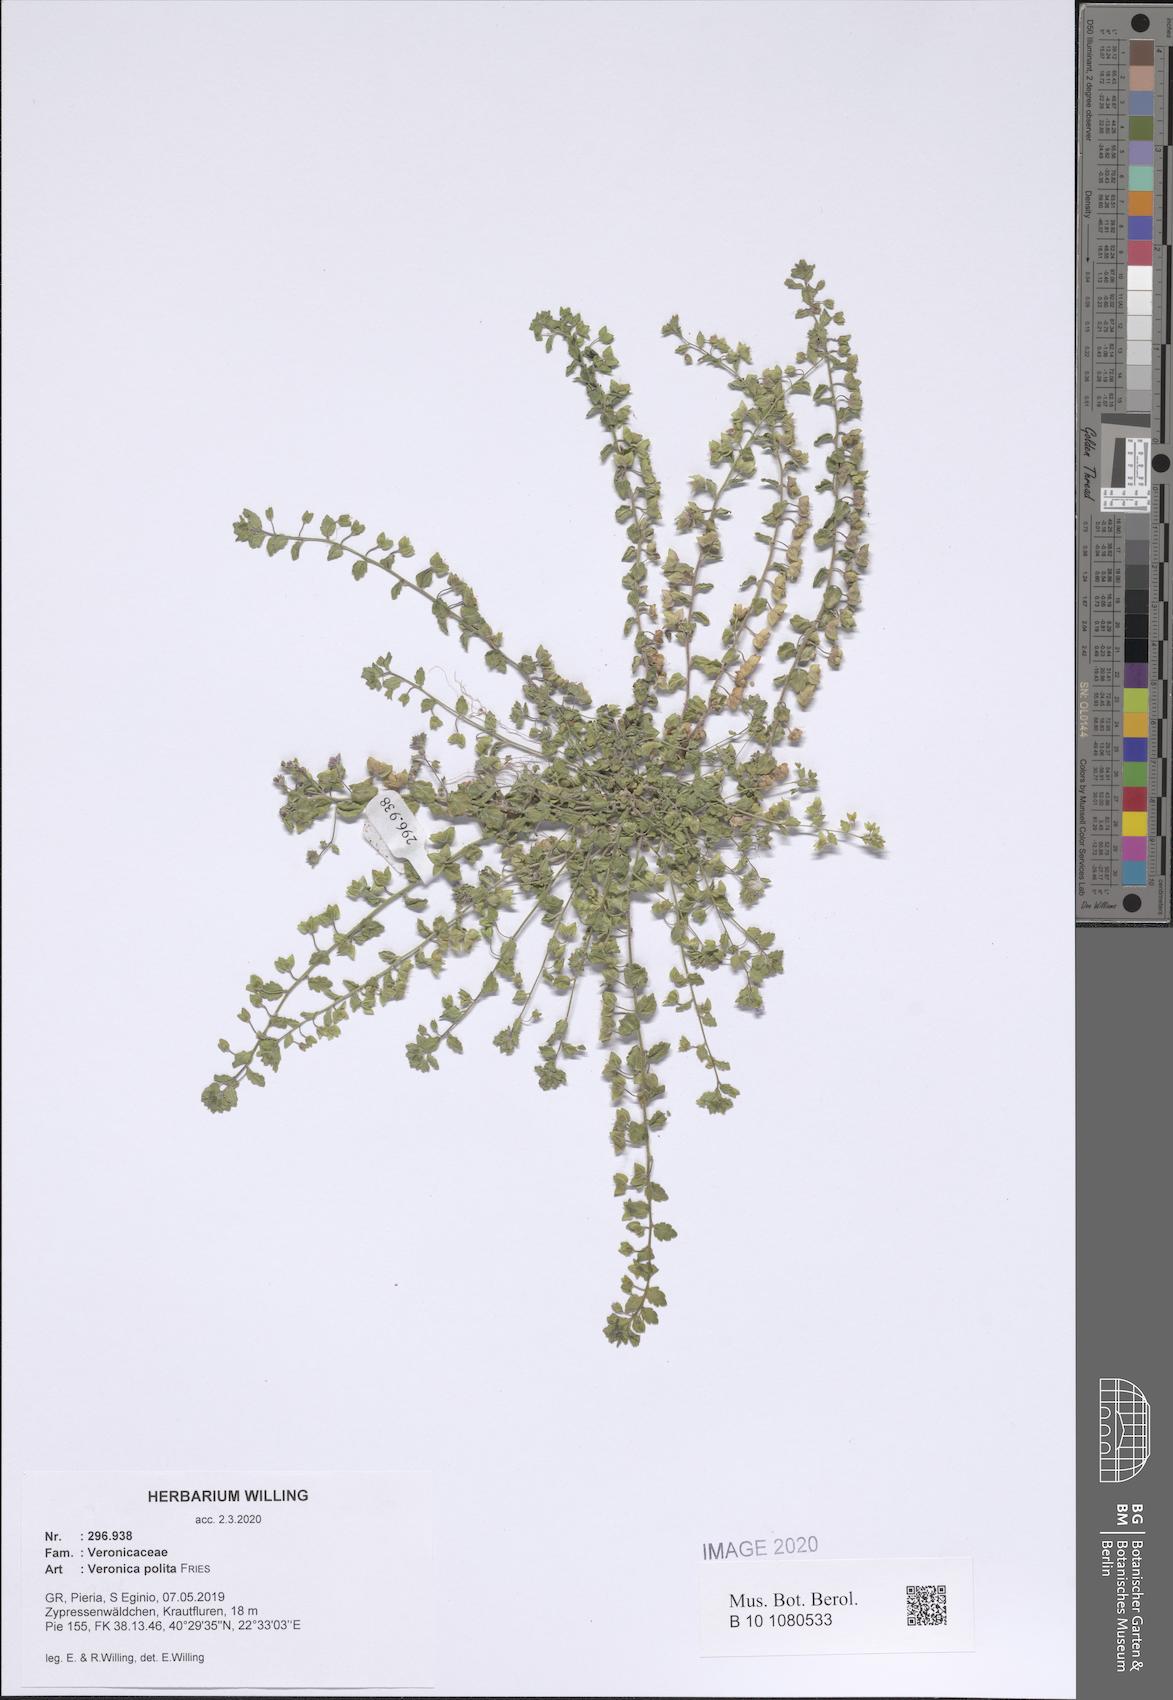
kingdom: Plantae
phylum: Tracheophyta
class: Magnoliopsida
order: Lamiales
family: Plantaginaceae
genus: Veronica
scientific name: Veronica polita
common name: Grey field-speedwell
